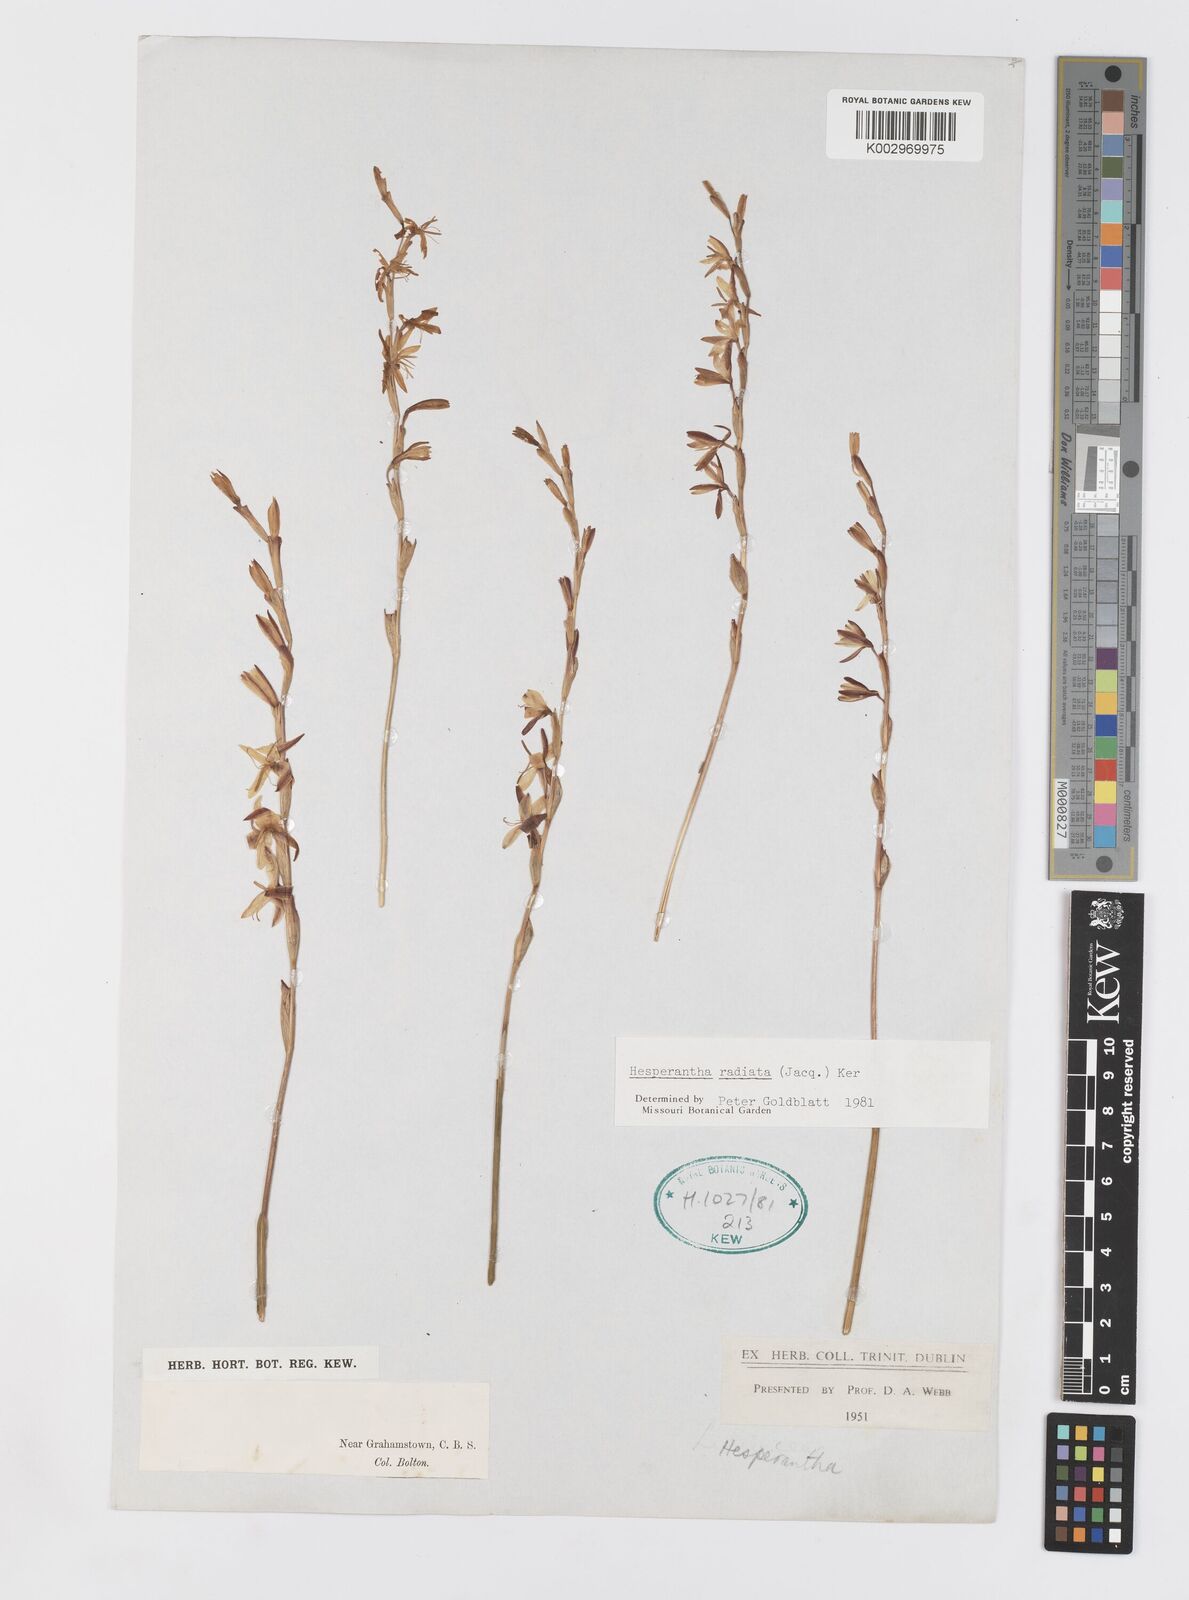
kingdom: Plantae
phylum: Tracheophyta
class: Liliopsida
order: Asparagales
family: Iridaceae
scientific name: Iridaceae
